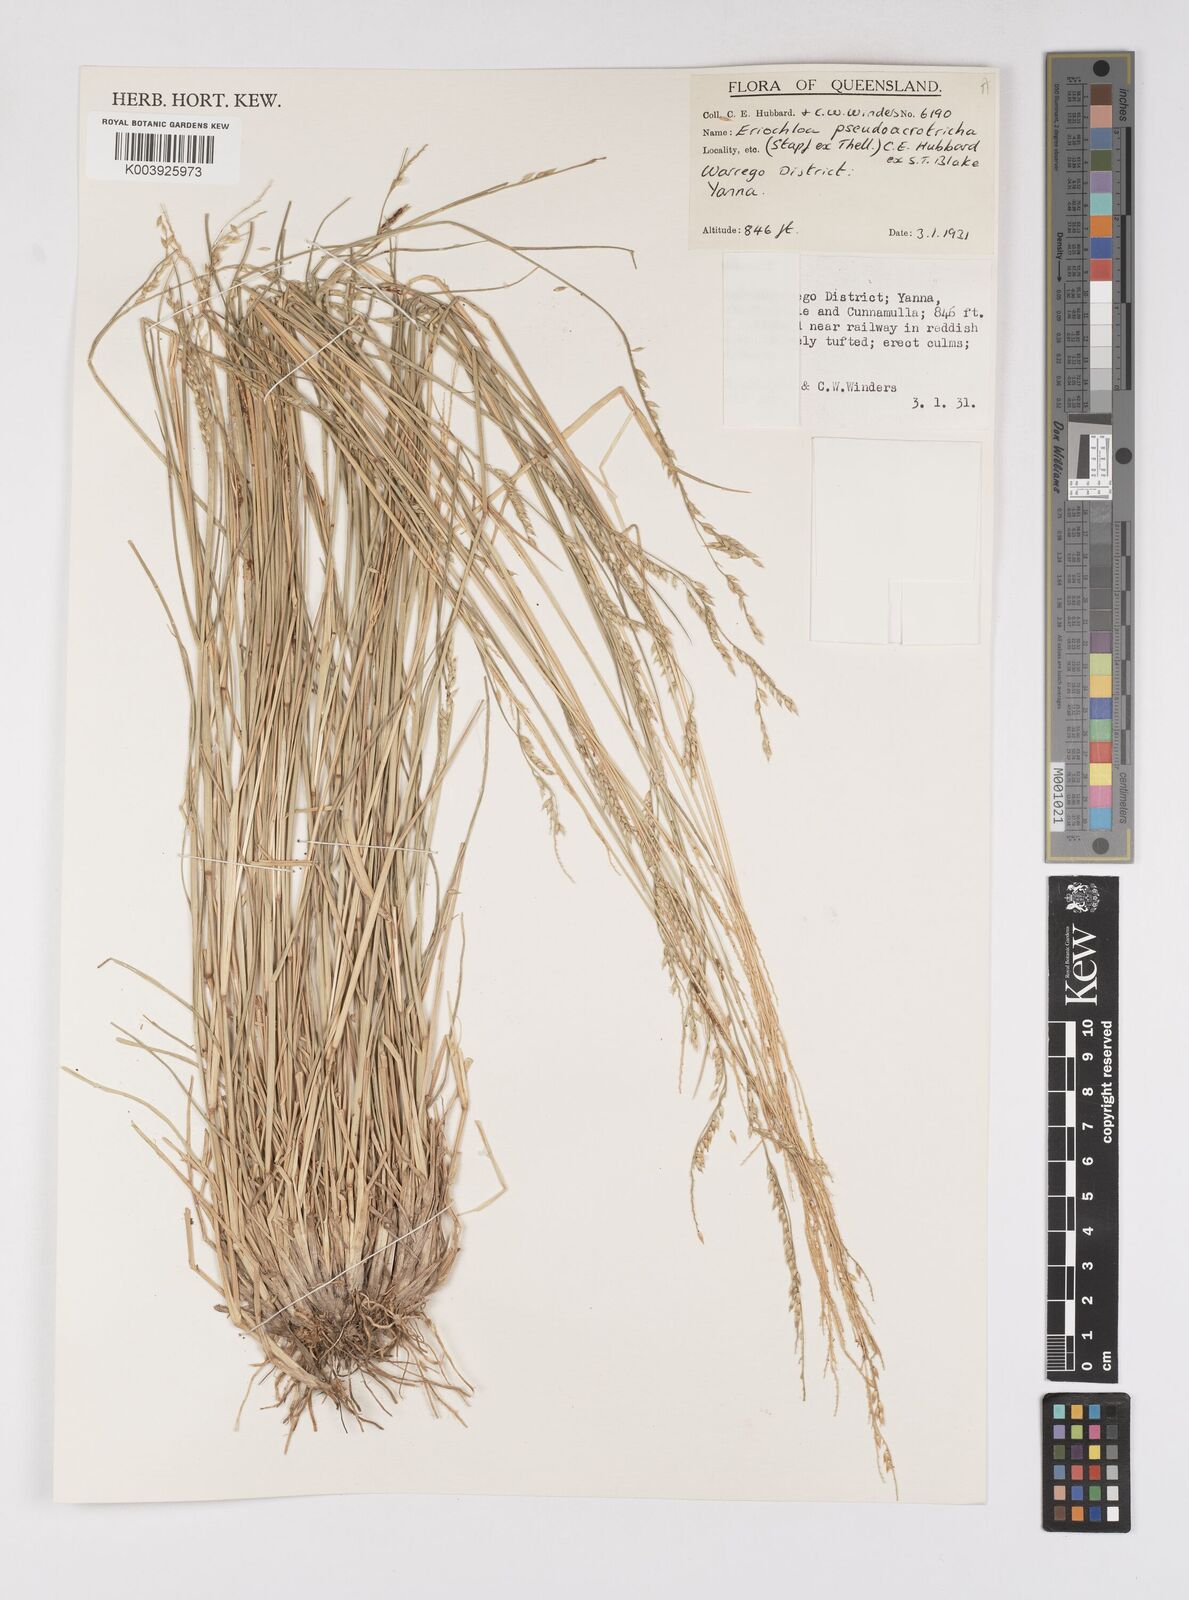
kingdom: Plantae
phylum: Tracheophyta
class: Liliopsida
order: Poales
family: Poaceae
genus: Eriochloa
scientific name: Eriochloa pseudoacrotricha
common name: Perennial cup-grass
